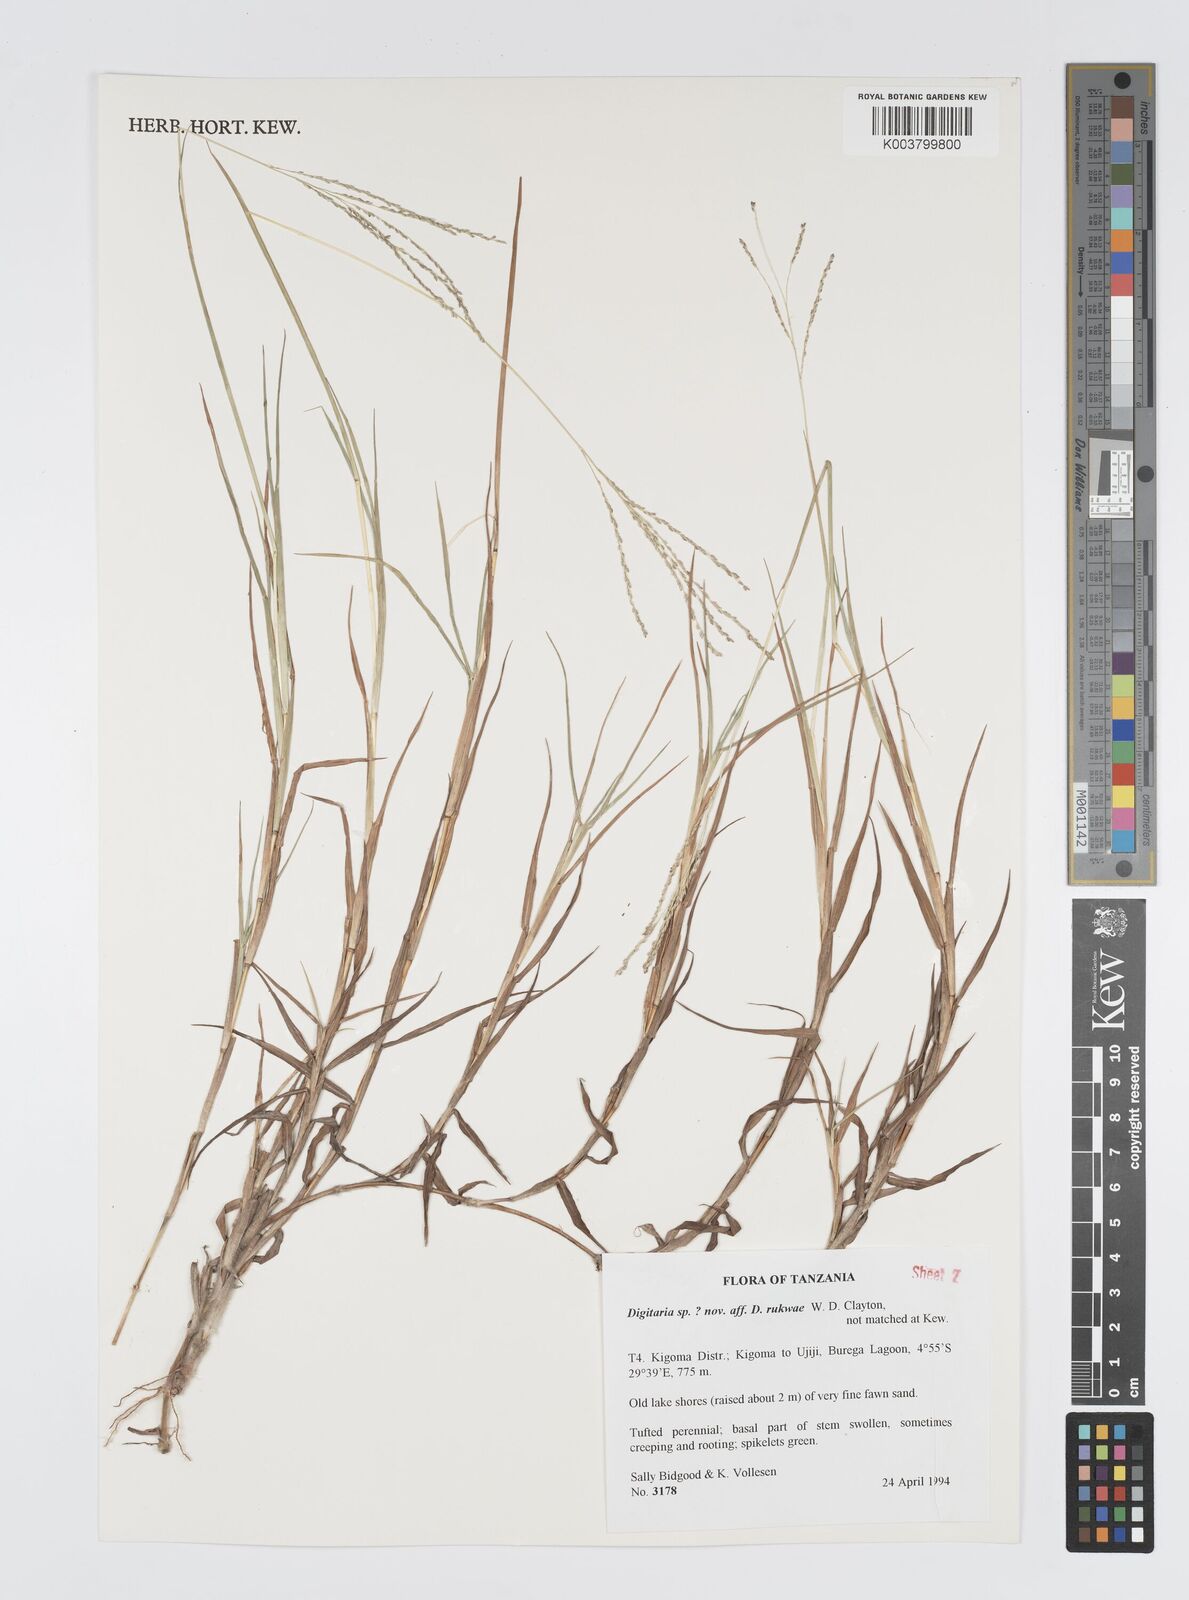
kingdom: Plantae
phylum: Tracheophyta
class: Liliopsida
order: Poales
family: Poaceae
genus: Digitaria
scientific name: Digitaria rukwae
